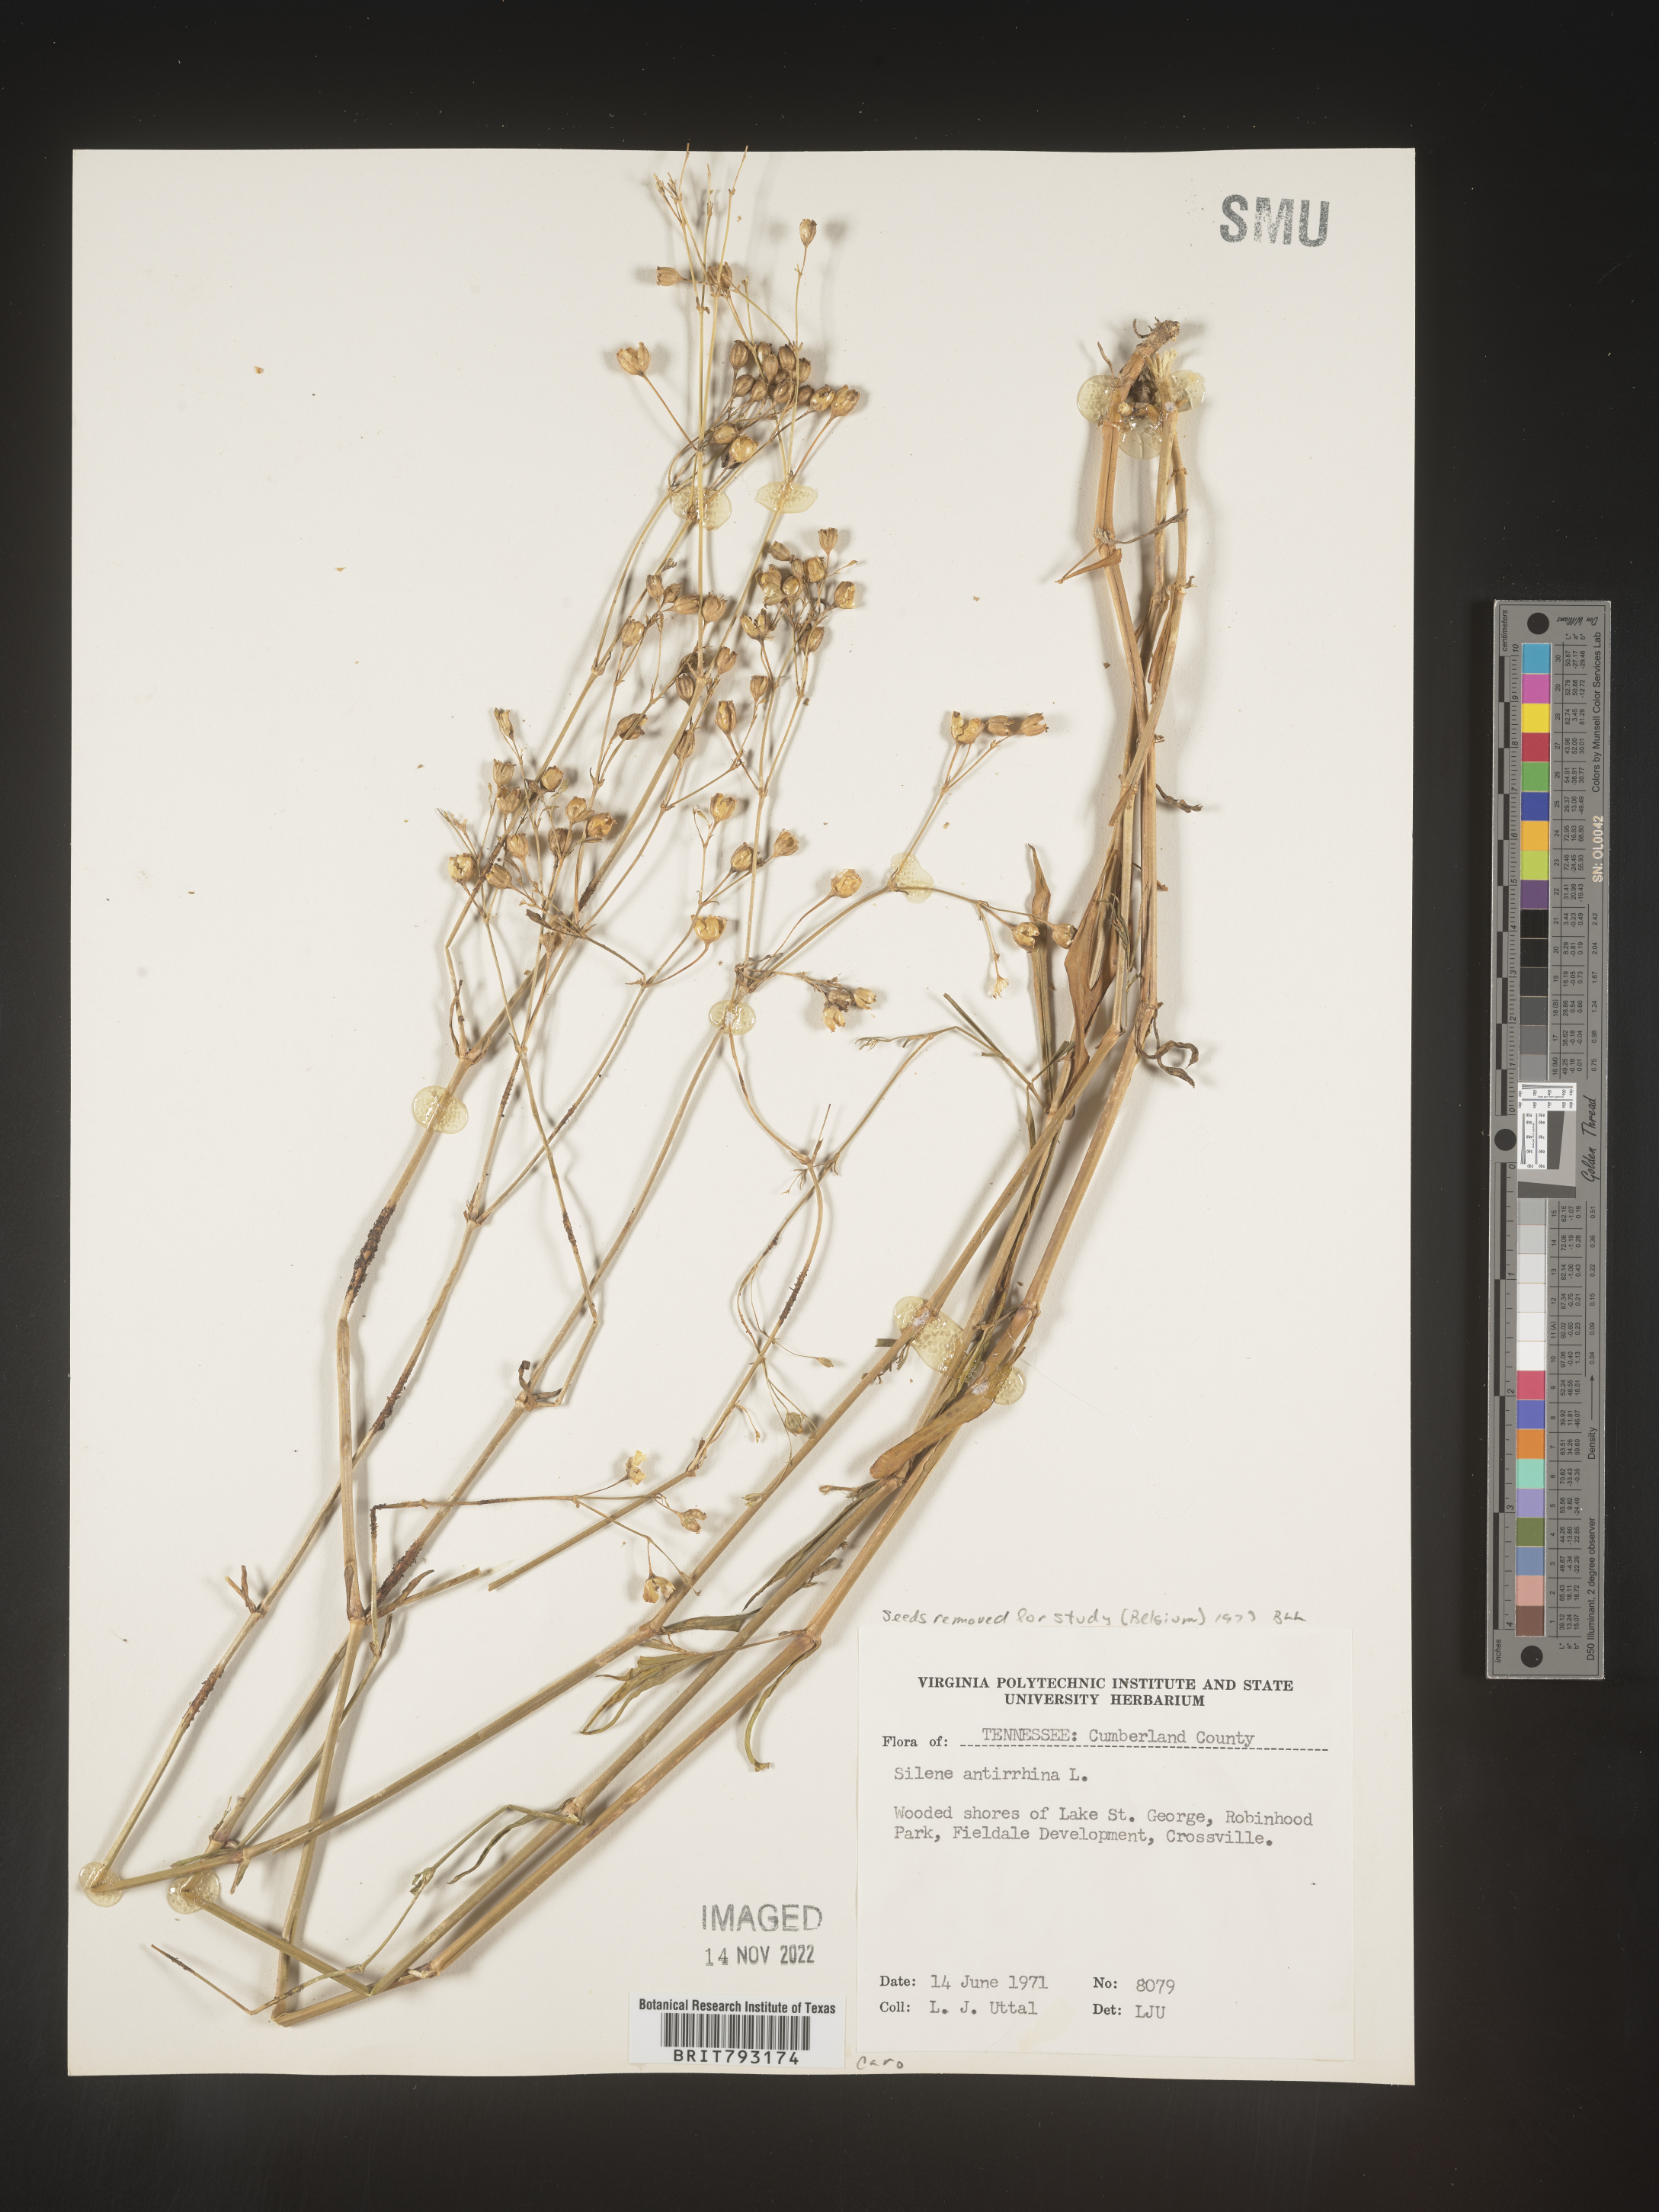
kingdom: Plantae
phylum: Tracheophyta
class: Magnoliopsida
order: Caryophyllales
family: Caryophyllaceae
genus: Silene
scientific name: Silene antirrhina
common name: Sleepy catchfly
